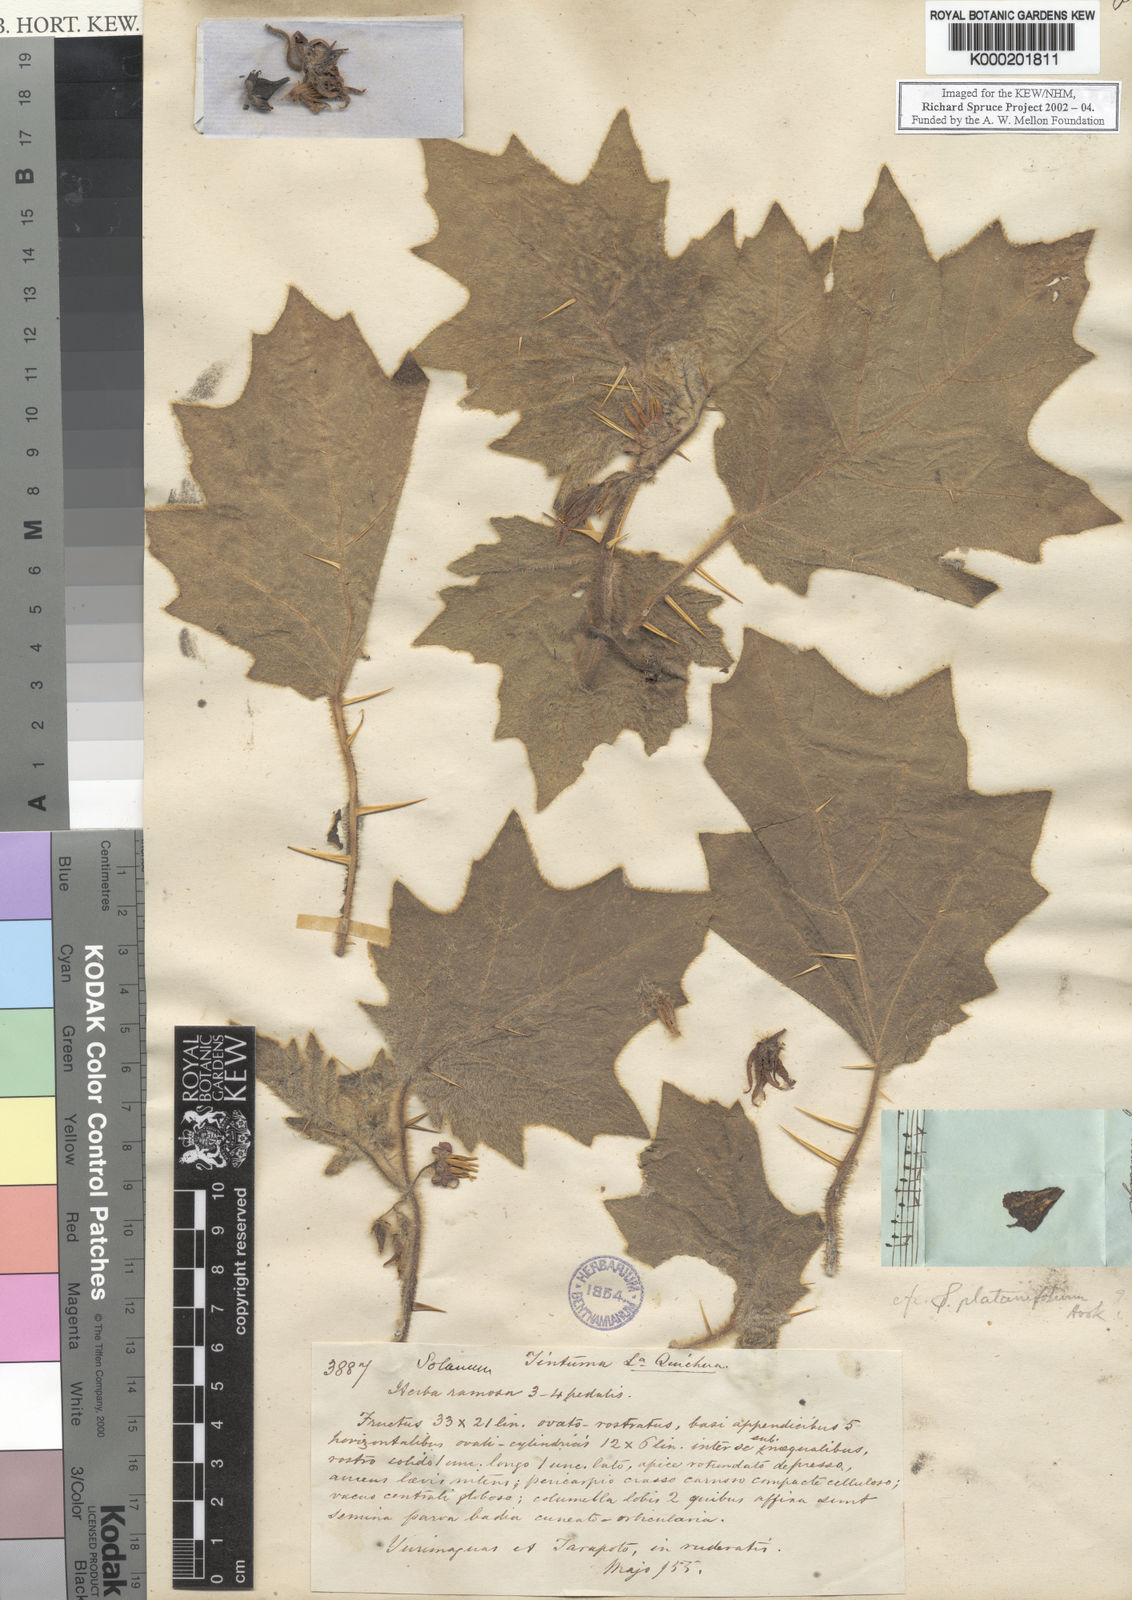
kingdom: Plantae
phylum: Tracheophyta
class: Magnoliopsida
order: Solanales
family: Solanaceae
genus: Solanum
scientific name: Solanum mammosum
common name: Nipple fruit
